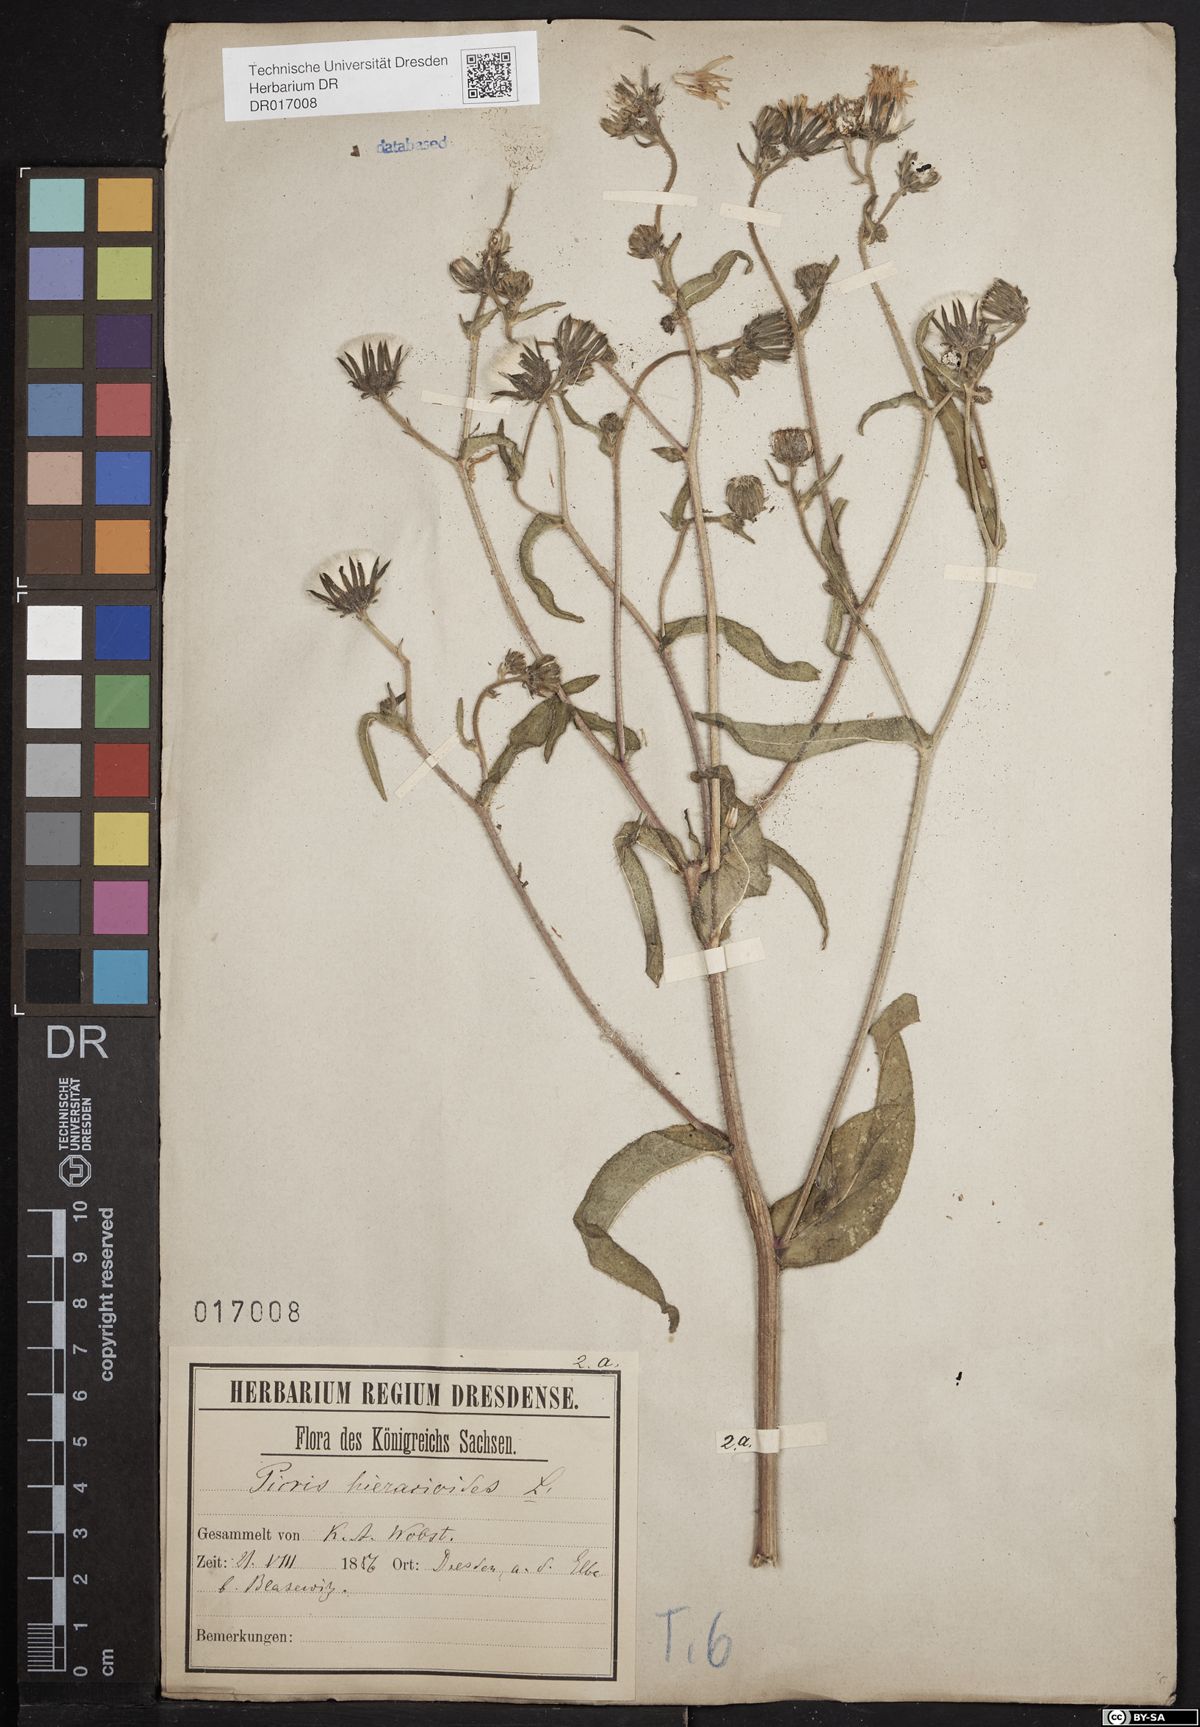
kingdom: Plantae
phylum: Tracheophyta
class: Magnoliopsida
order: Asterales
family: Asteraceae
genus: Picris
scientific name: Picris hieracioides
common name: Hawkweed oxtongue
